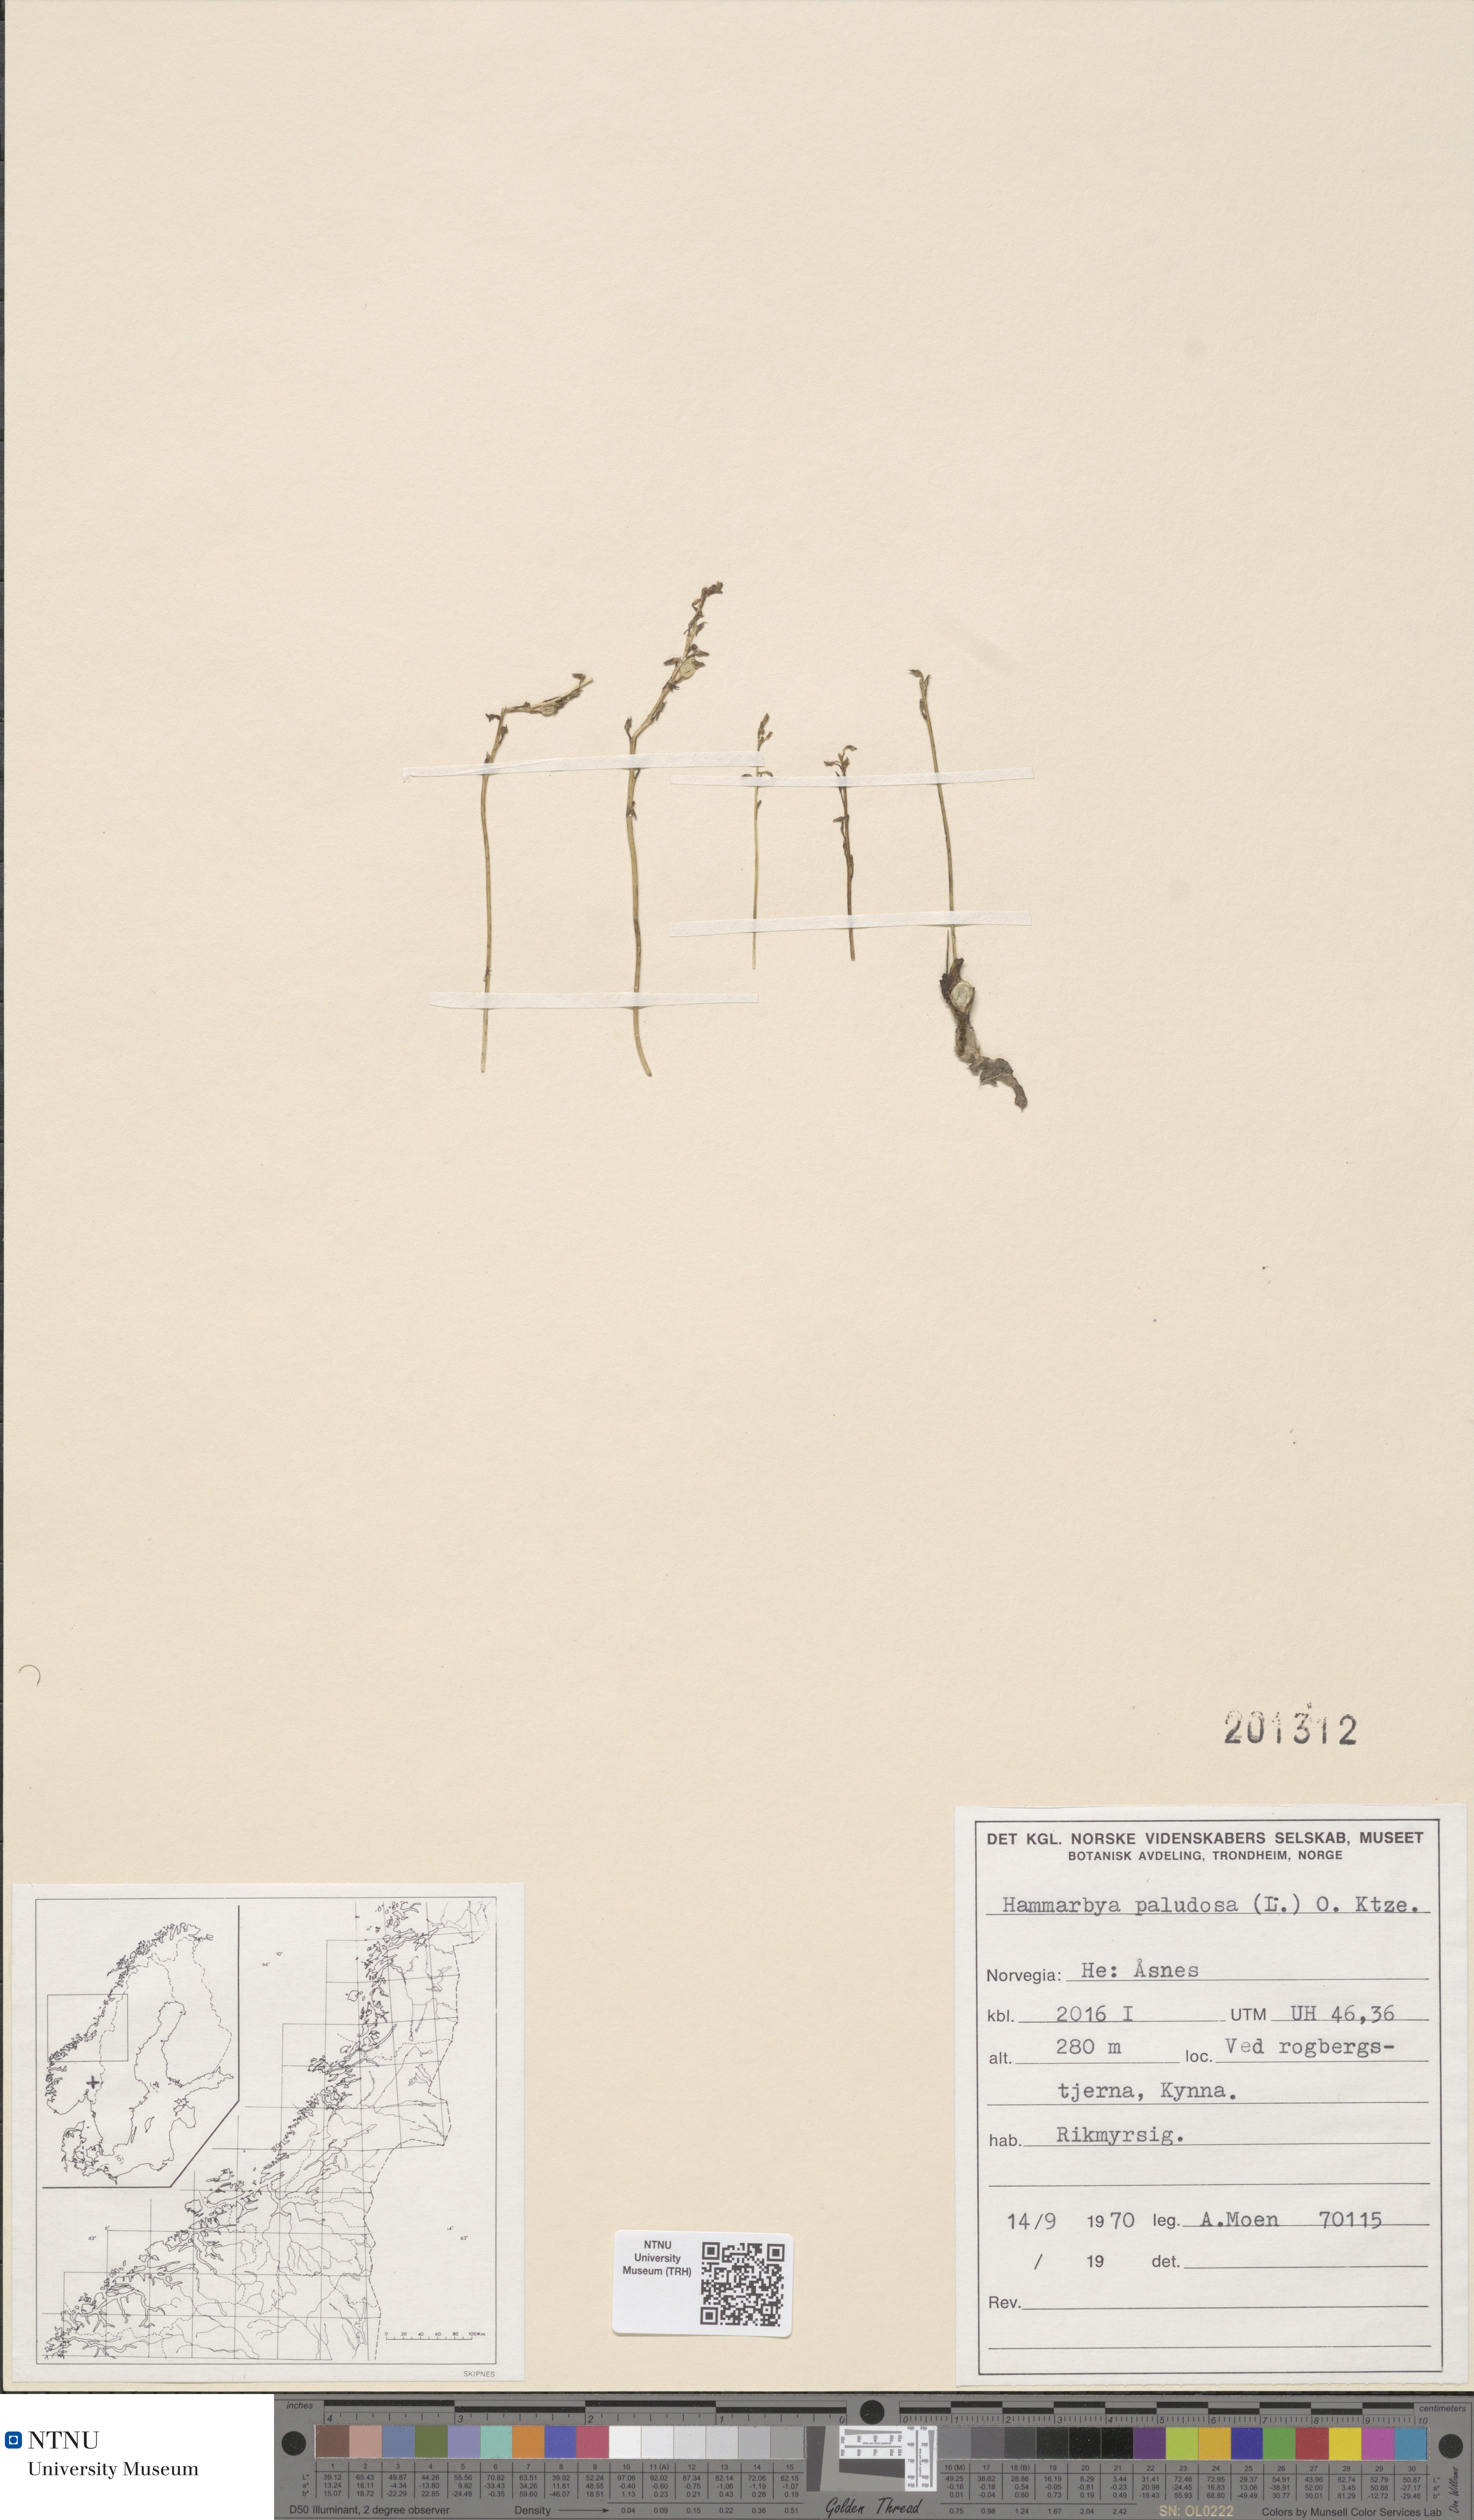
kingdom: Plantae
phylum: Tracheophyta
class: Liliopsida
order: Asparagales
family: Orchidaceae
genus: Hammarbya
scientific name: Hammarbya paludosa
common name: Bog orchid
